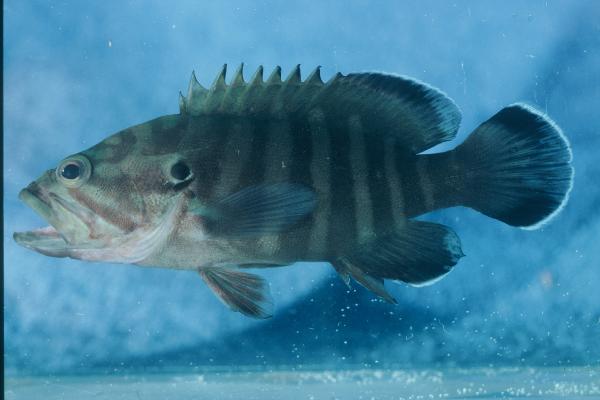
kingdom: Animalia
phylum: Chordata
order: Perciformes
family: Serranidae
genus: Cephalopholis
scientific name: Cephalopholis boenak
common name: Chocolate hind
